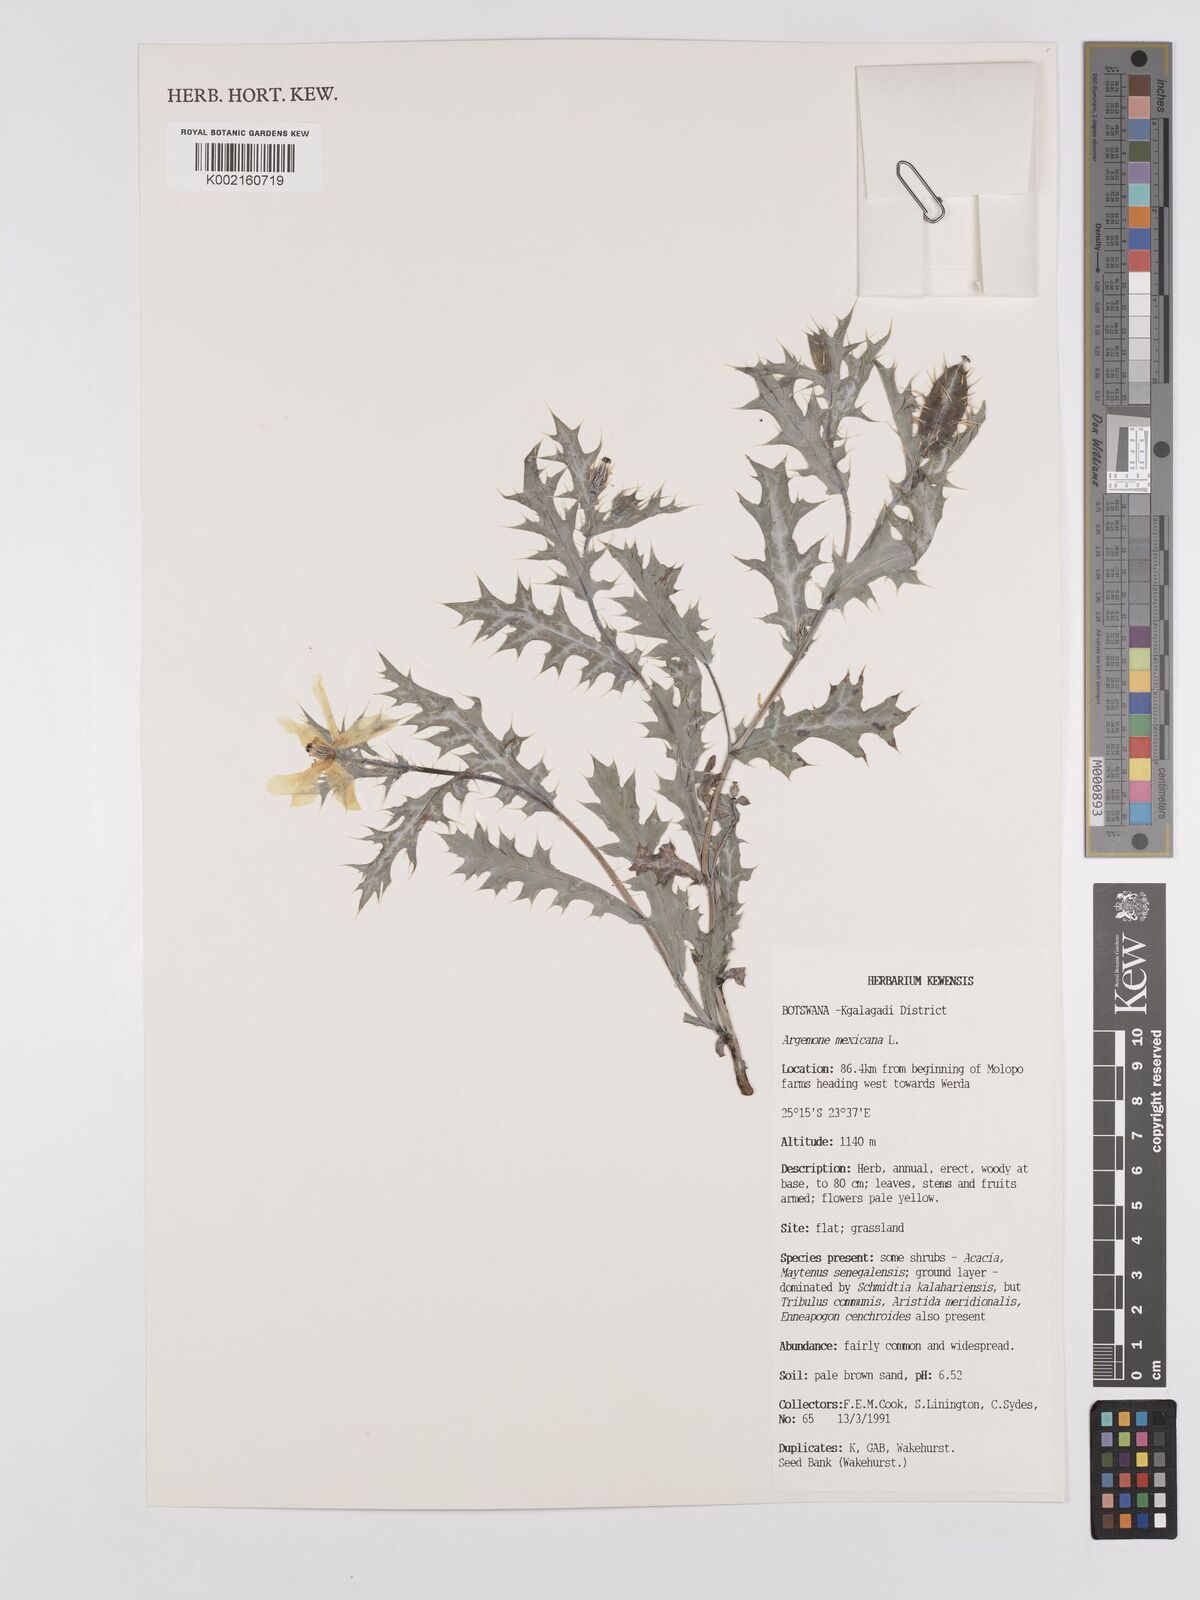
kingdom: Plantae
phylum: Tracheophyta
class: Magnoliopsida
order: Ranunculales
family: Papaveraceae
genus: Argemone
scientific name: Argemone mexicana
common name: Mexican poppy
